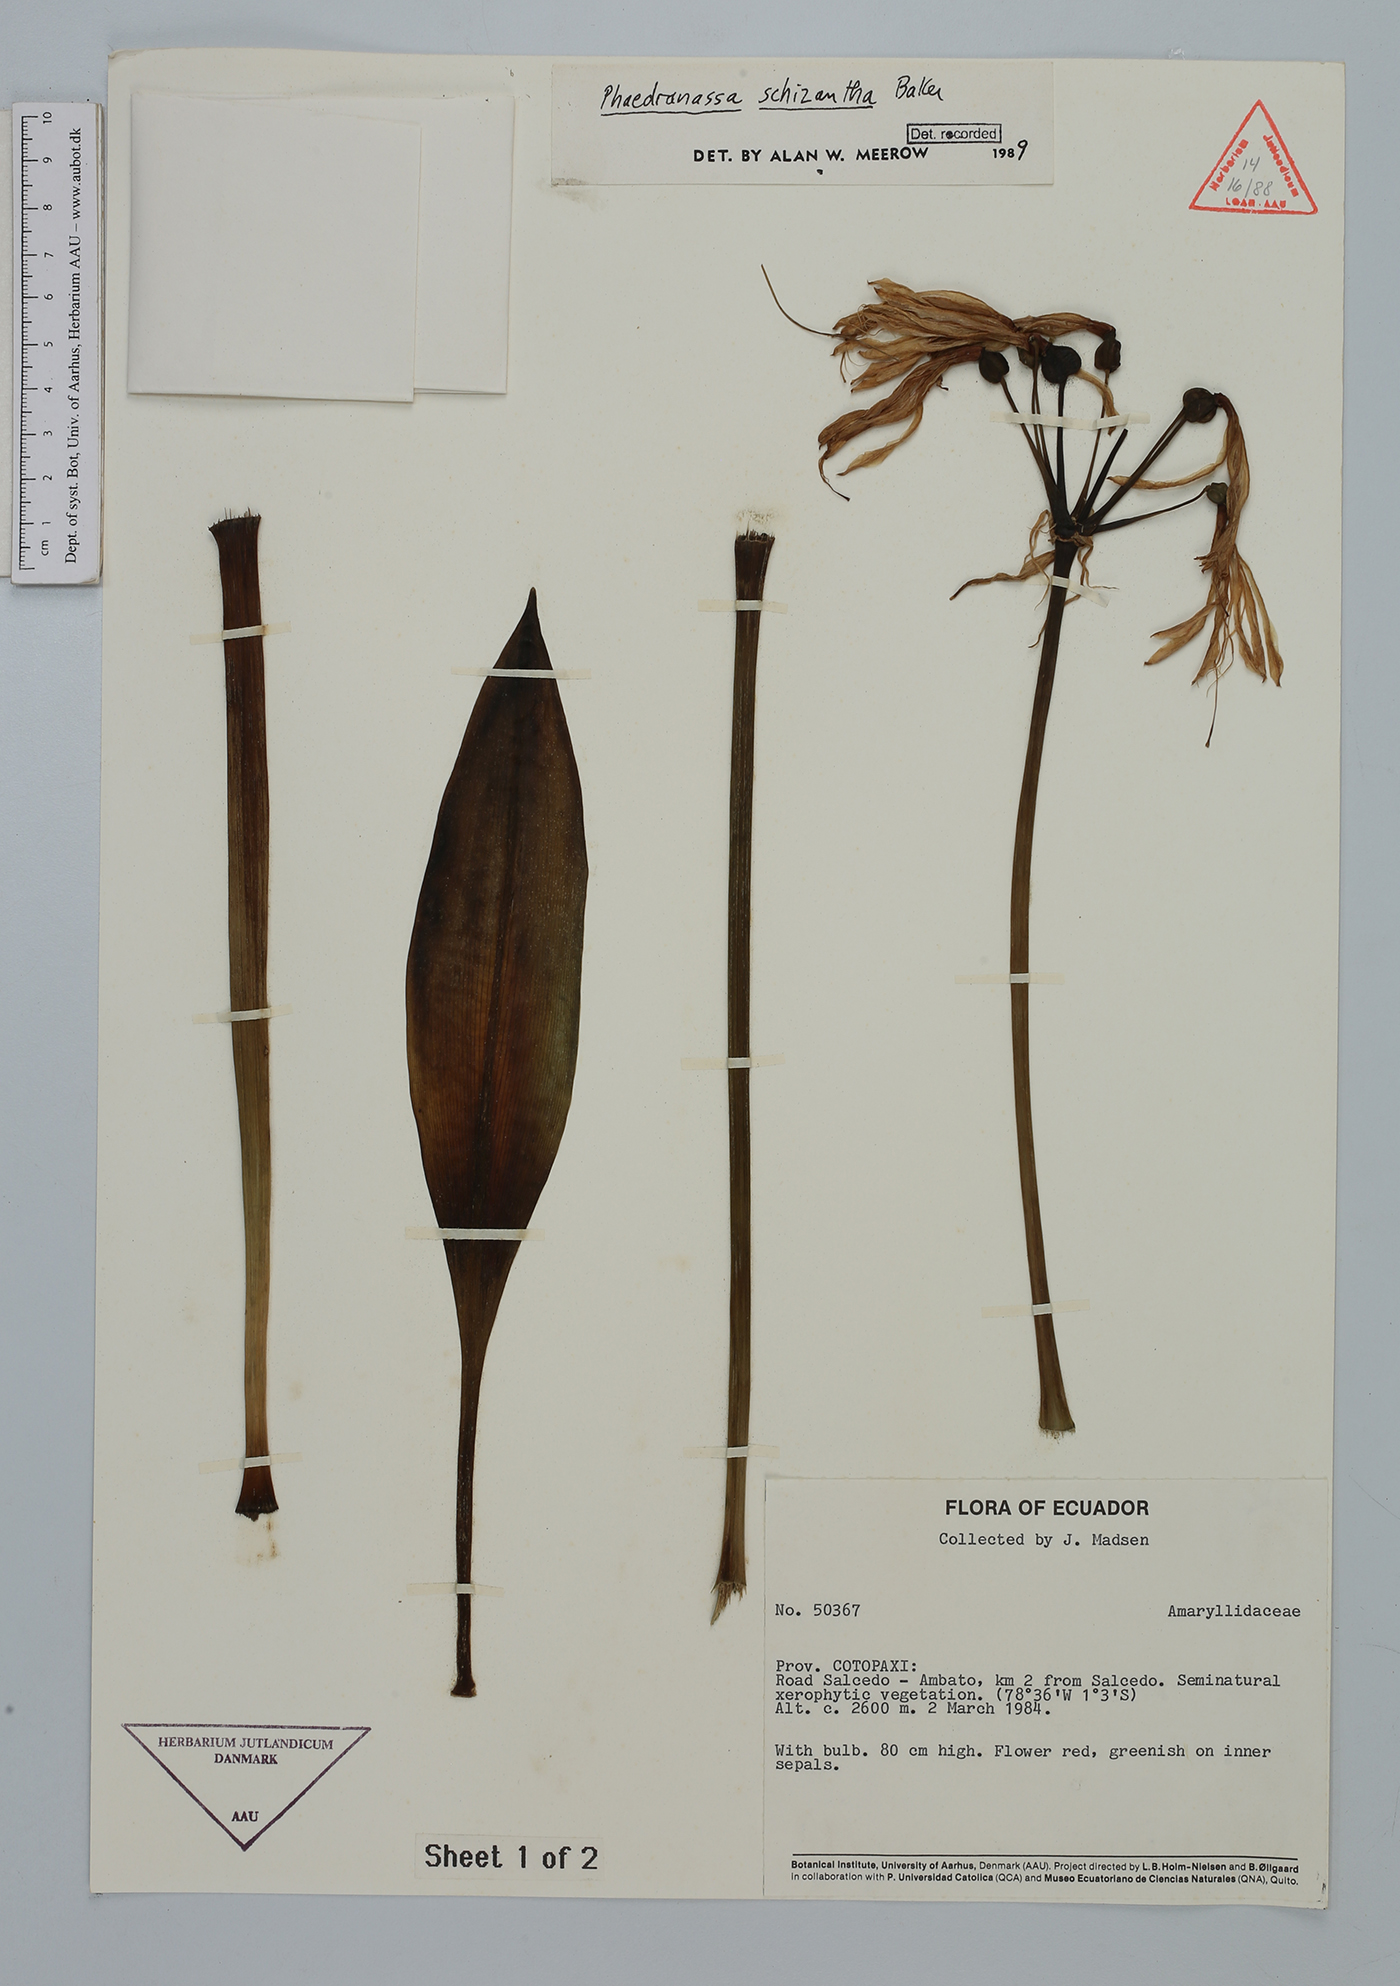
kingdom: Plantae
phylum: Tracheophyta
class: Liliopsida
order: Asparagales
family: Amaryllidaceae
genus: Phaedranassa
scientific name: Phaedranassa schizantha
